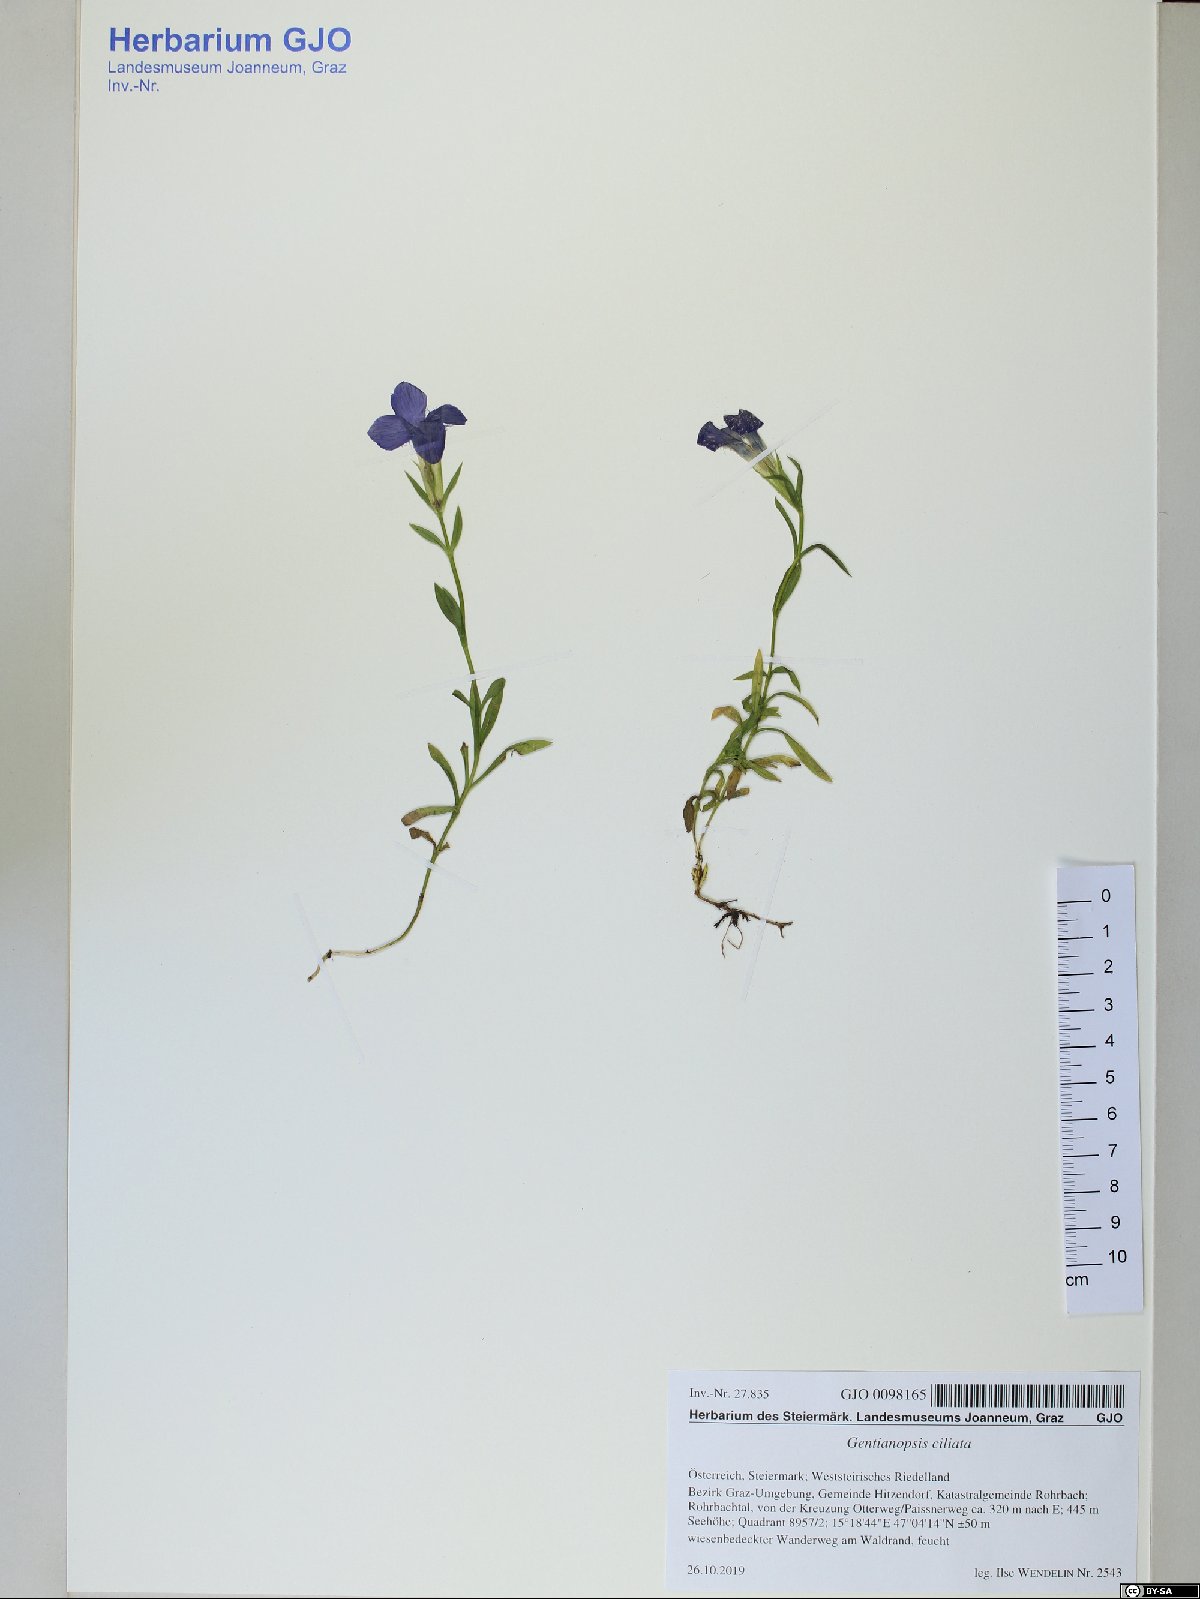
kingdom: Plantae
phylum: Tracheophyta
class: Magnoliopsida
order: Gentianales
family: Gentianaceae
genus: Gentianopsis
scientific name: Gentianopsis ciliata
